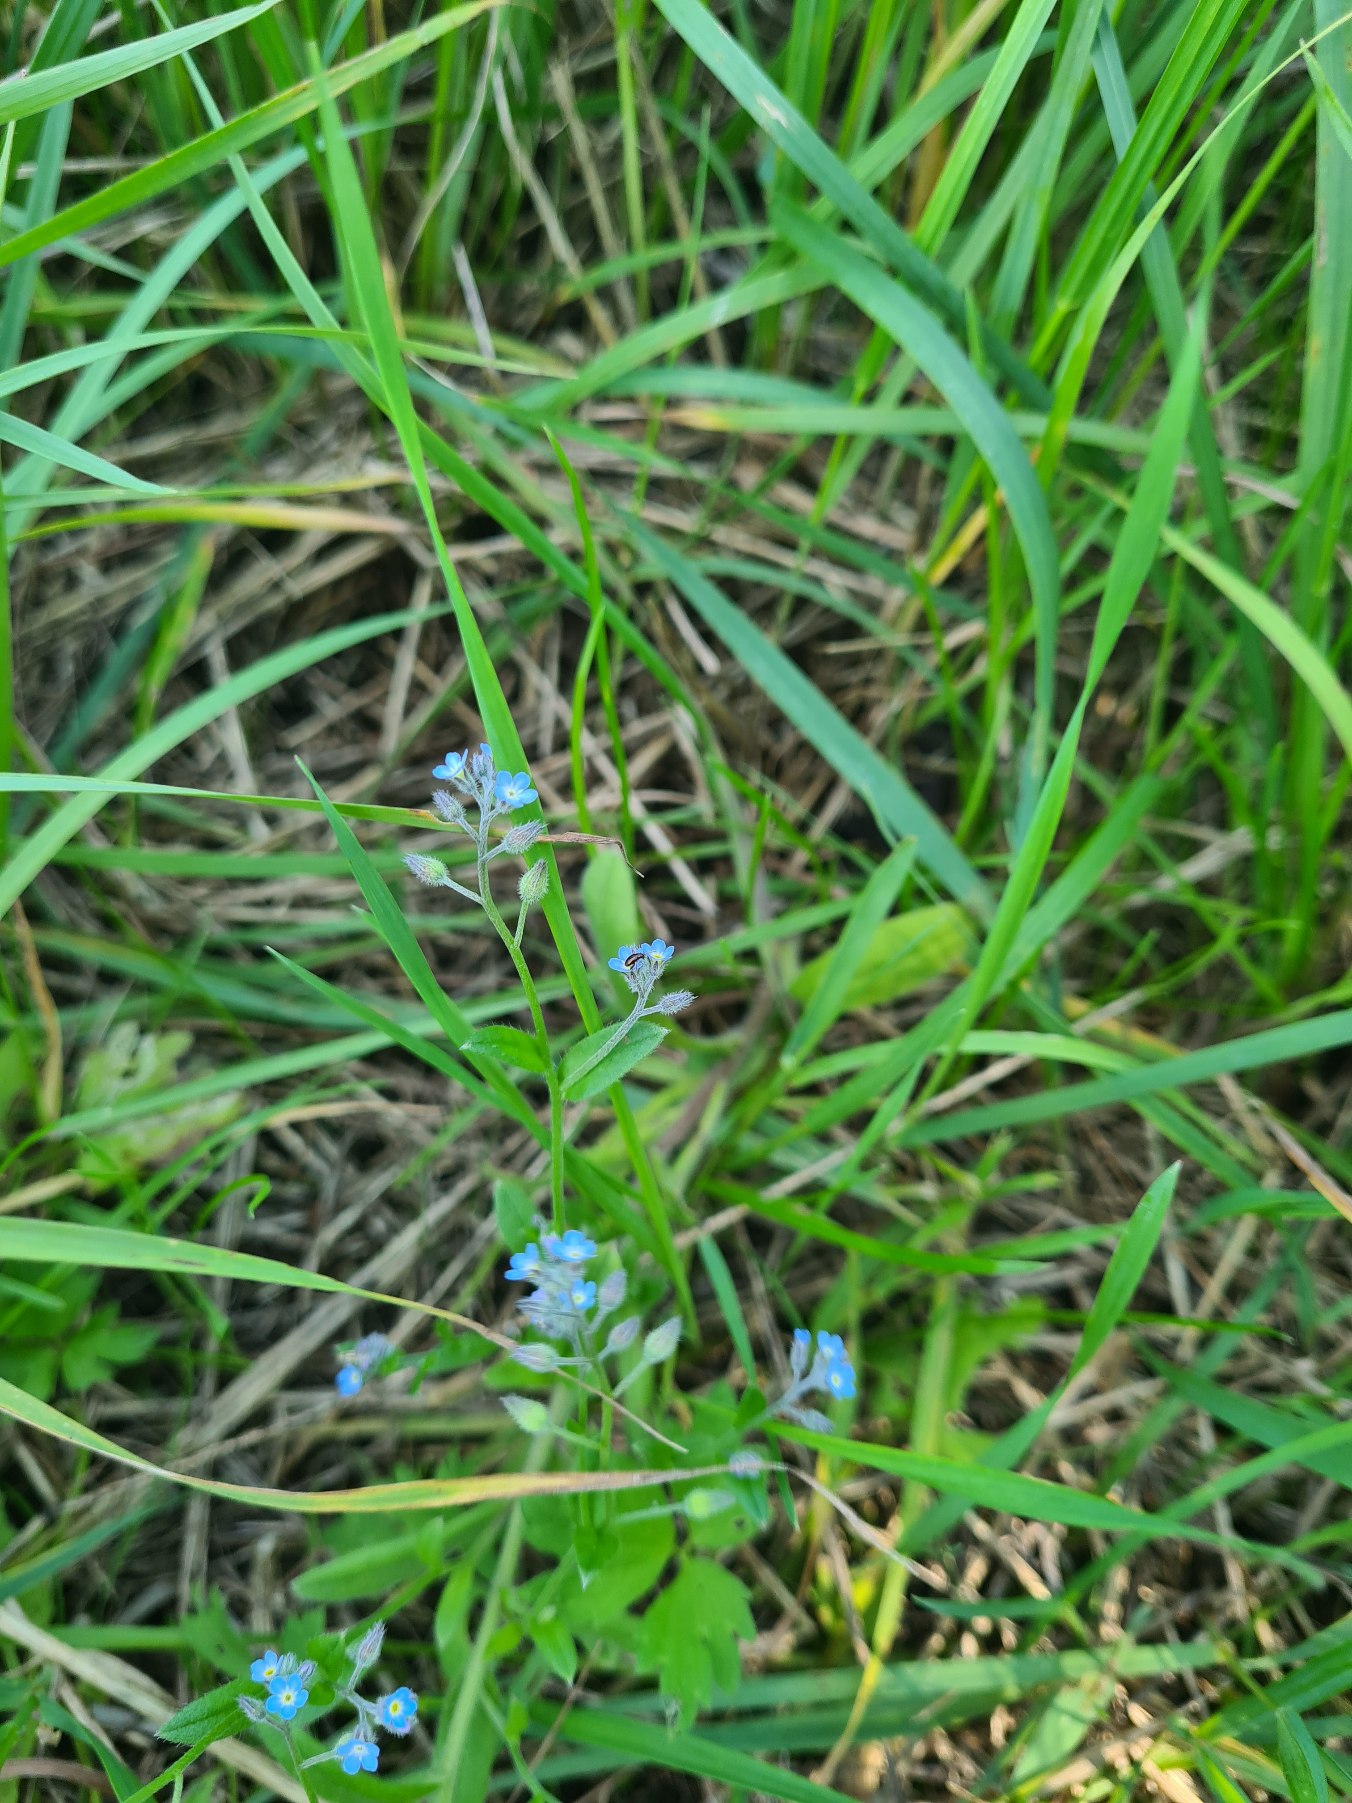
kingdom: Plantae
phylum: Tracheophyta
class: Magnoliopsida
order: Boraginales
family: Boraginaceae
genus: Myosotis
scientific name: Myosotis arvensis
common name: Mark-forglemmigej
